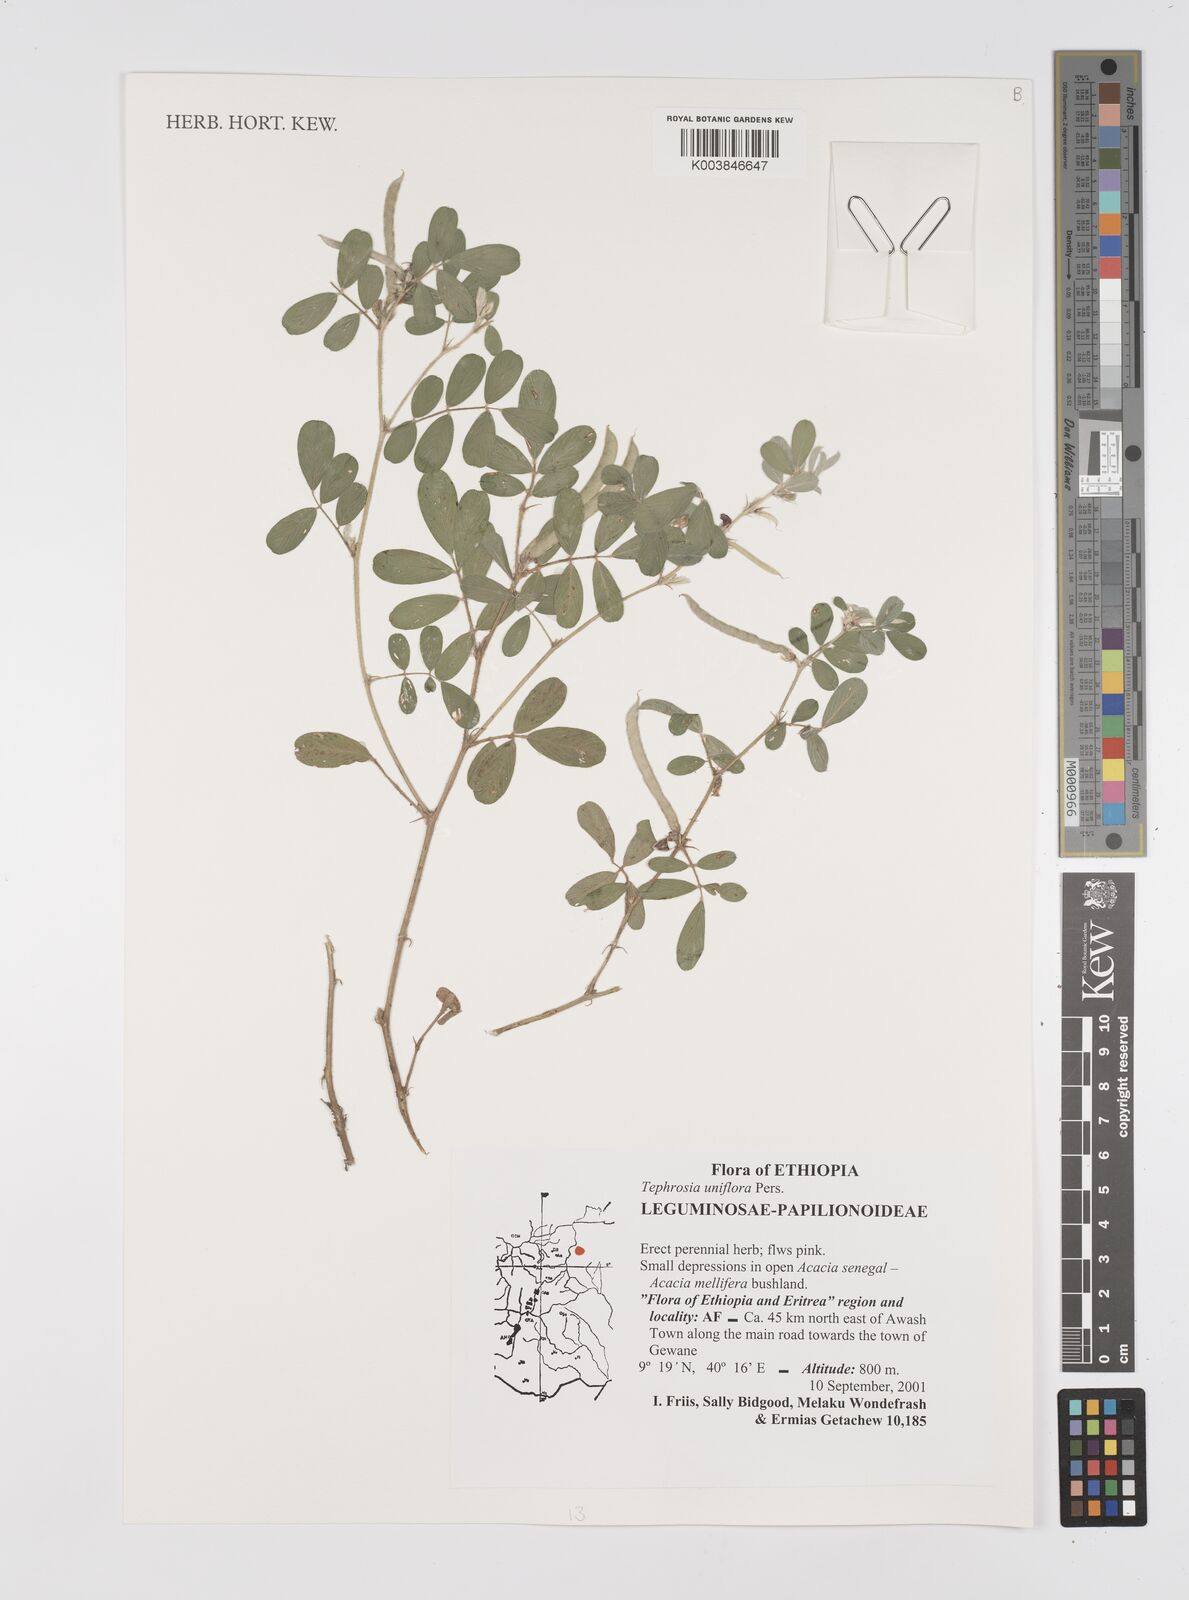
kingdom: Plantae
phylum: Tracheophyta
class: Magnoliopsida
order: Fabales
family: Fabaceae
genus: Tephrosia
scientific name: Tephrosia uniflora
